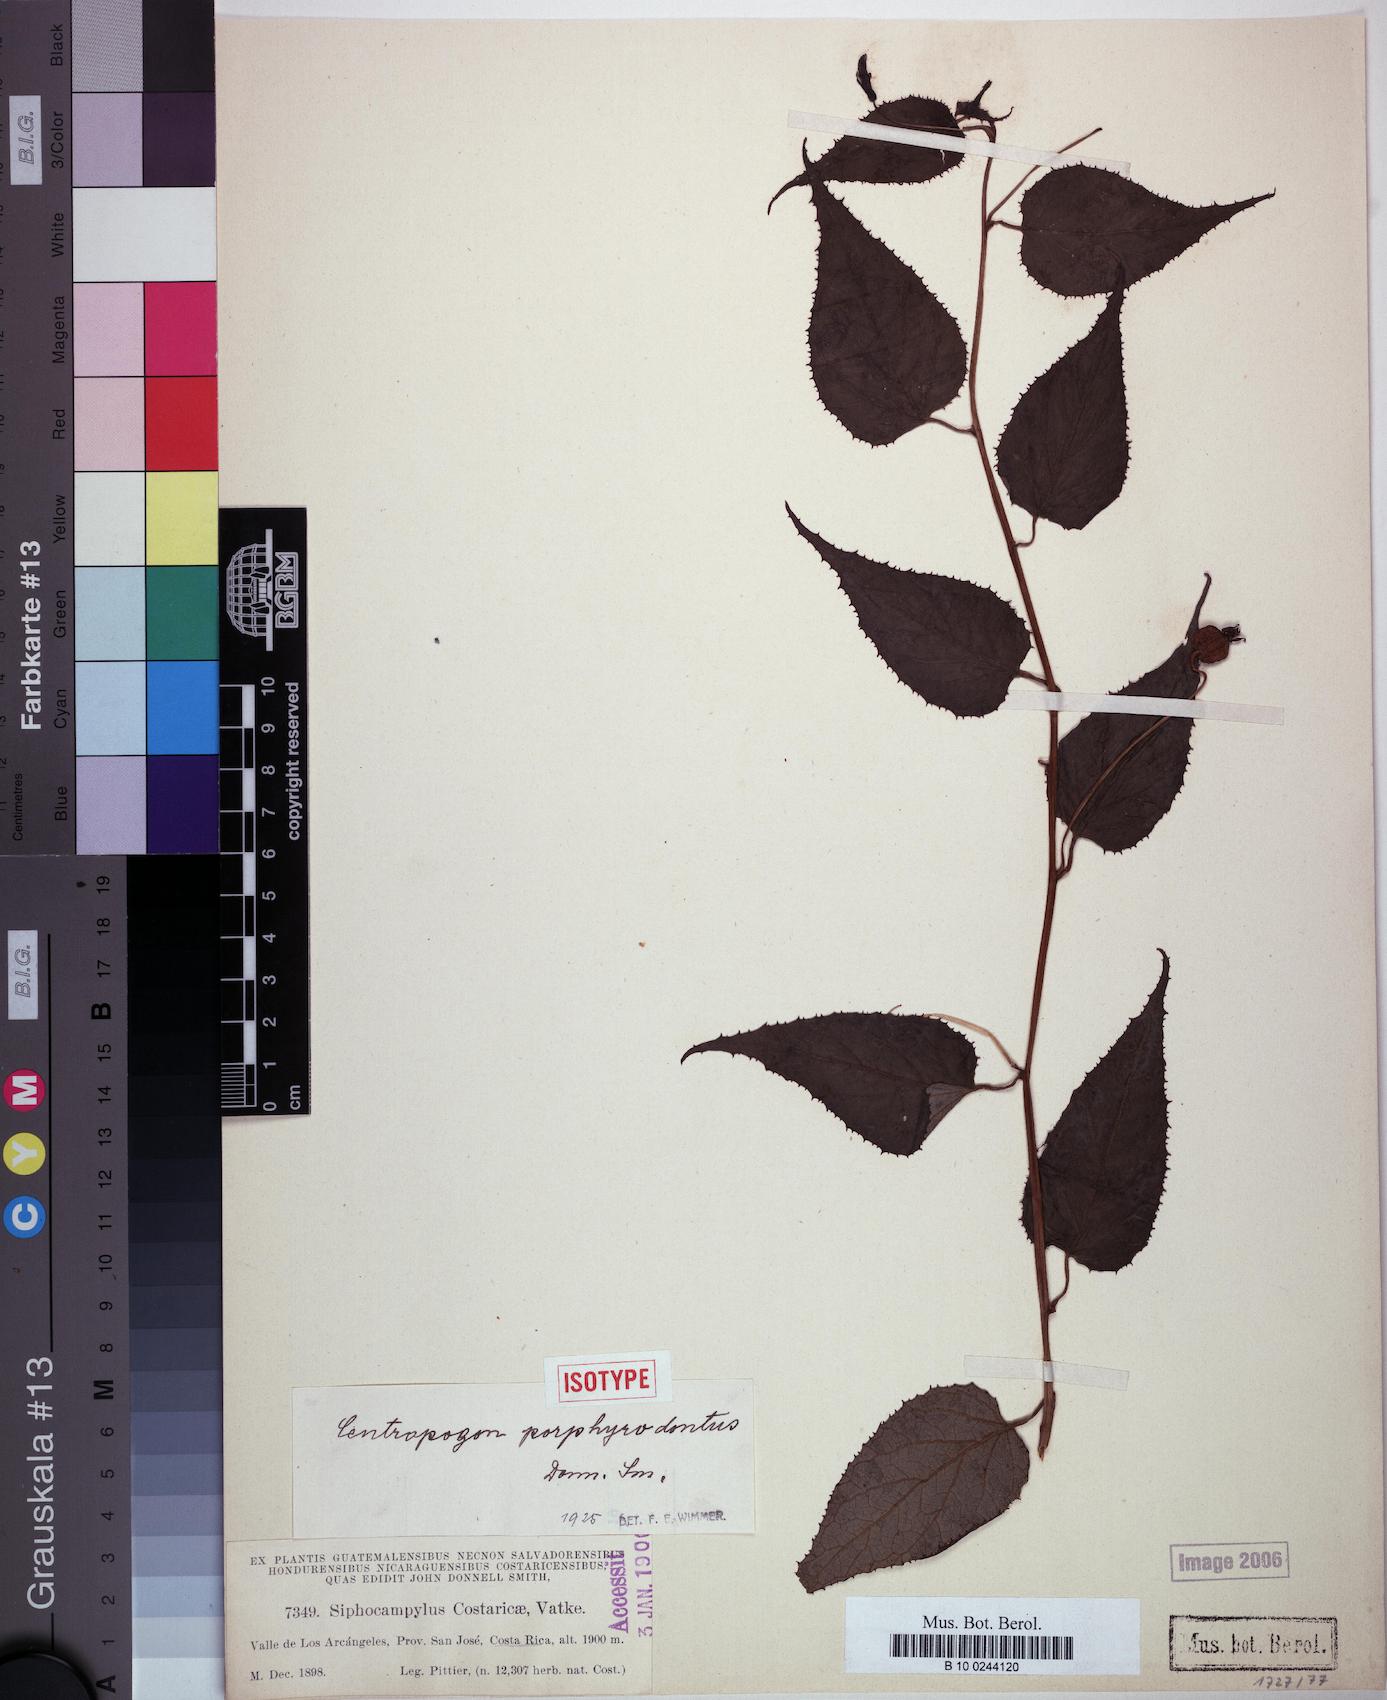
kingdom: Plantae
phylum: Tracheophyta
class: Magnoliopsida
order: Asterales
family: Campanulaceae
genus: Centropogon
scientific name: Centropogon costaricae
